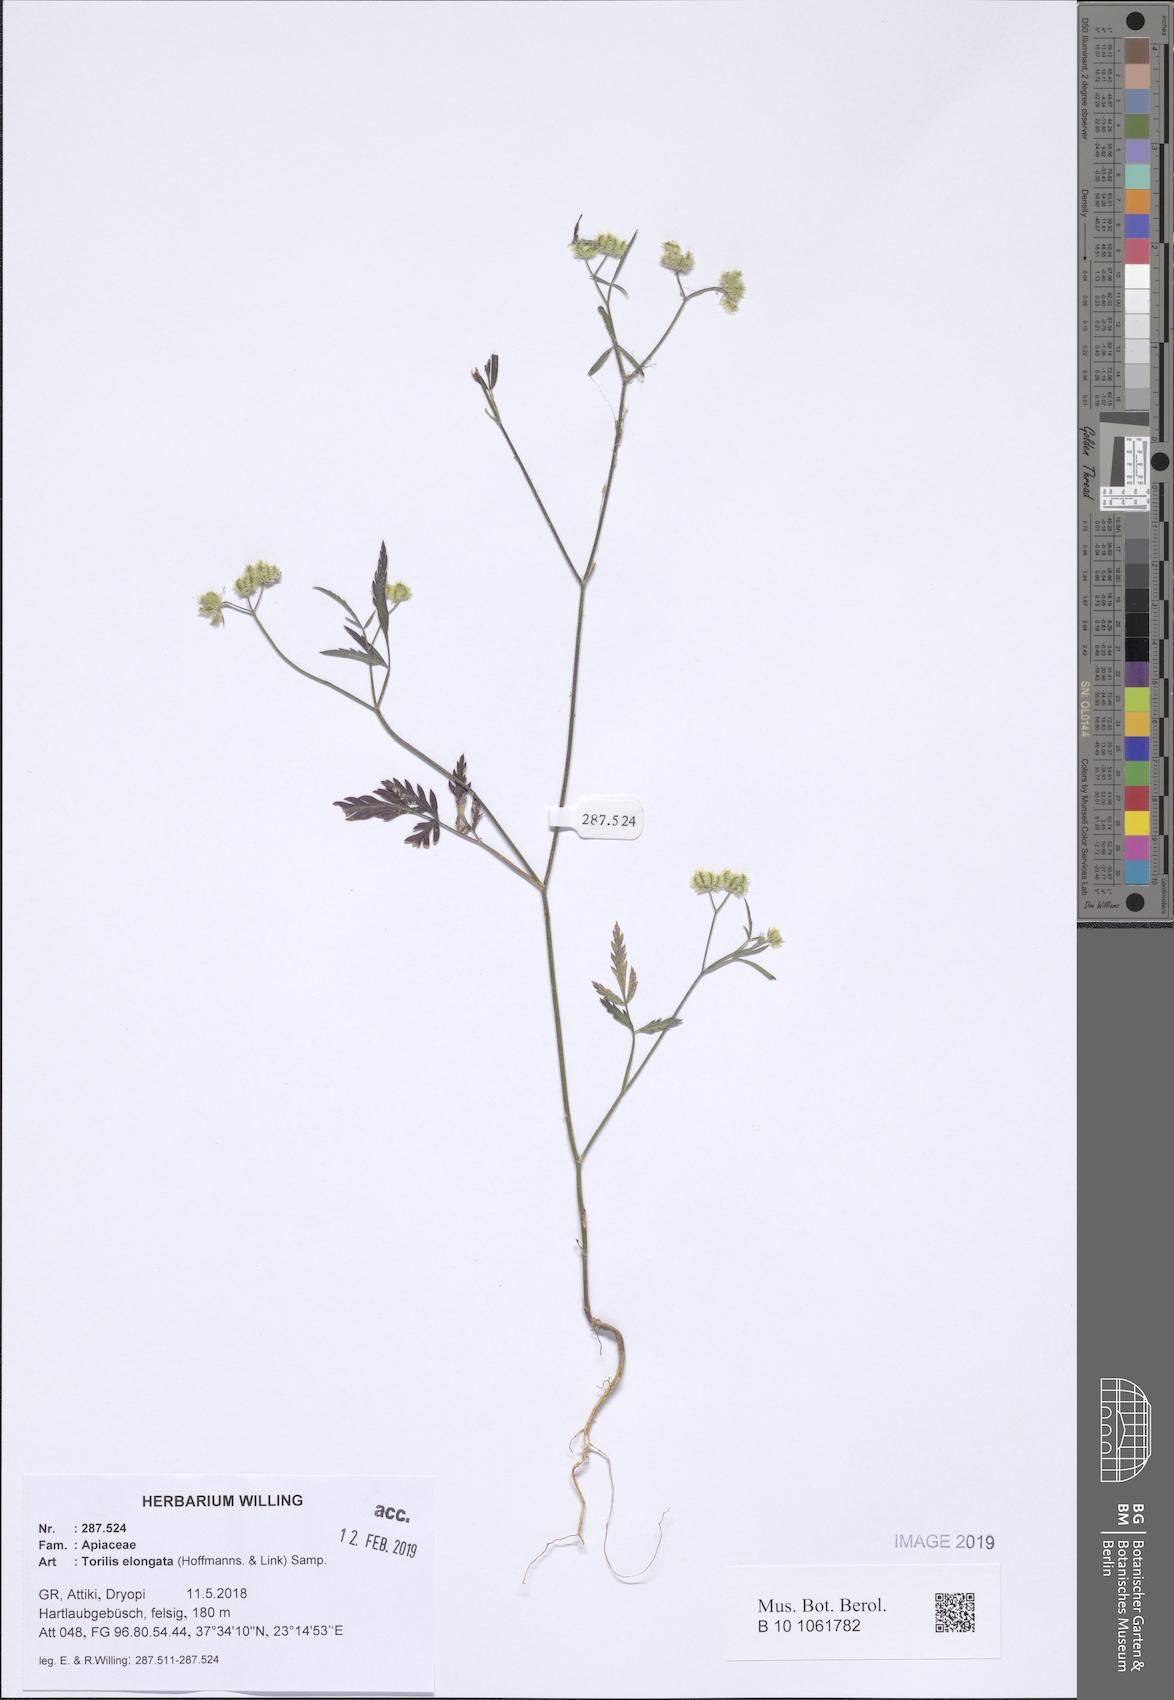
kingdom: Plantae
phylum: Tracheophyta
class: Magnoliopsida
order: Apiales
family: Apiaceae
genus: Torilis
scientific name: Torilis elongata
